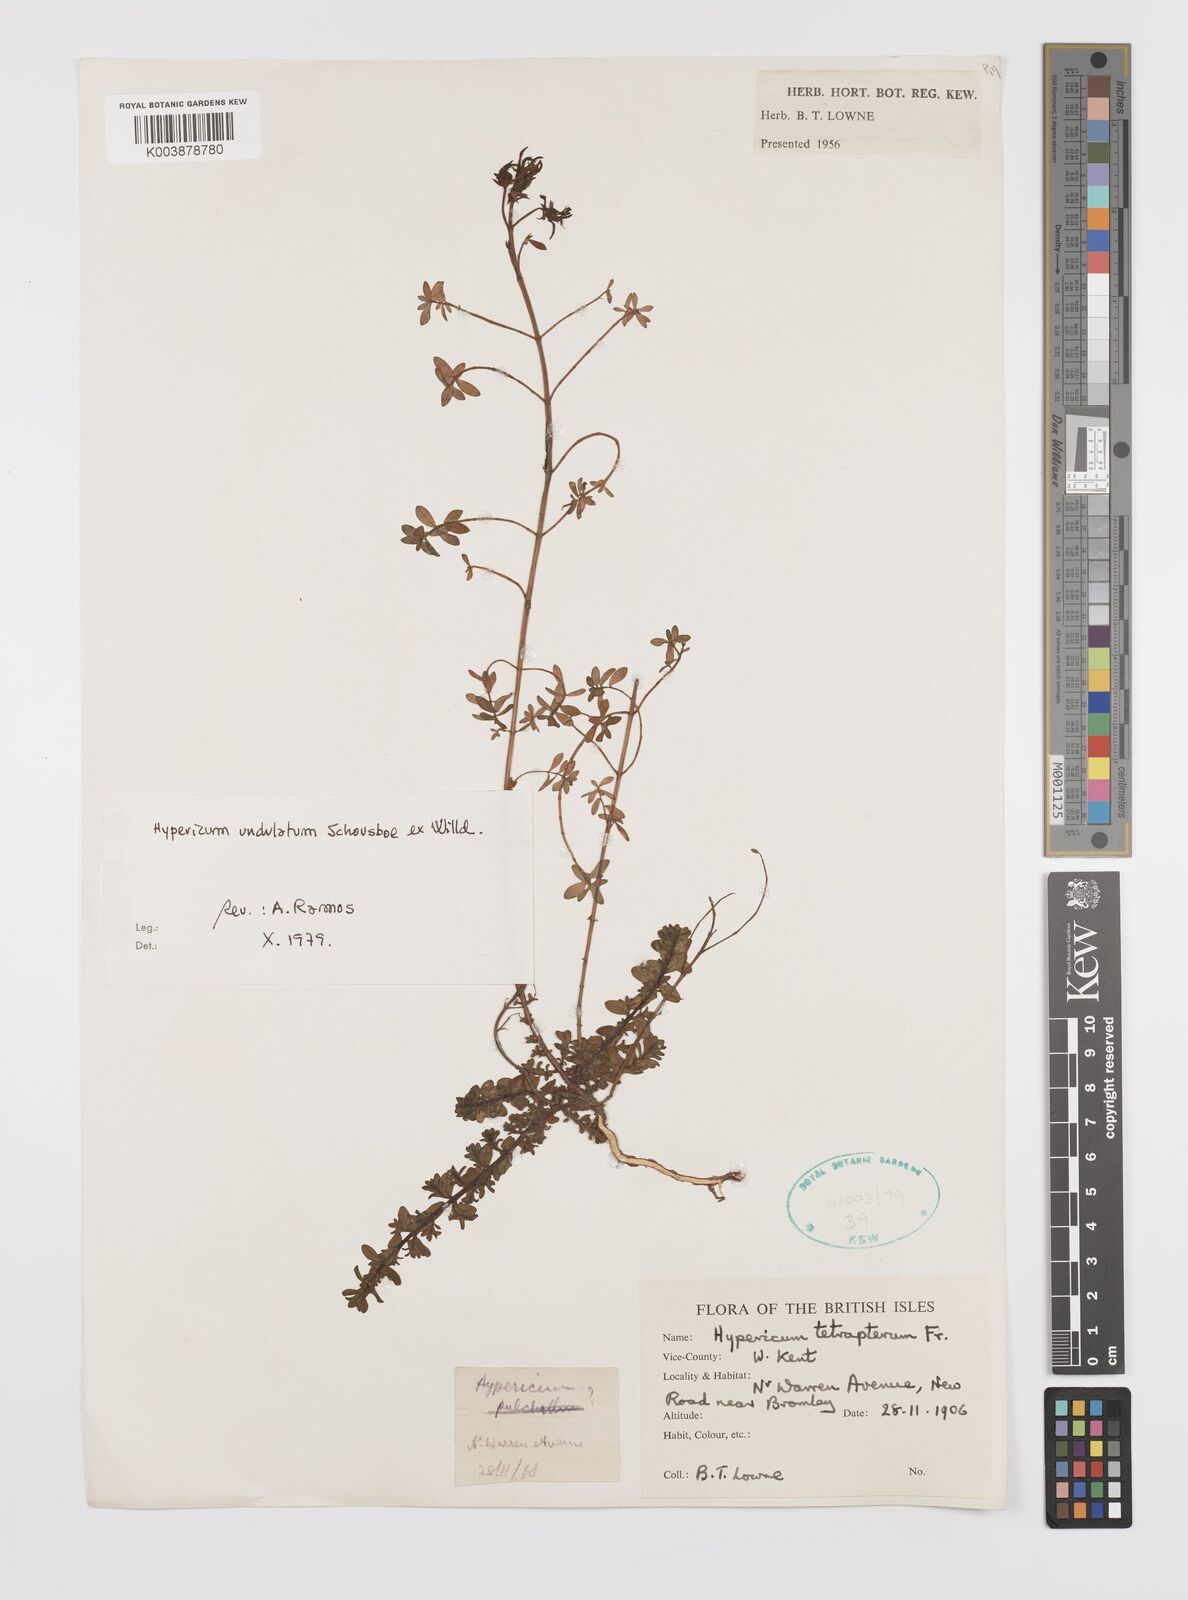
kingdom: Plantae
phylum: Tracheophyta
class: Magnoliopsida
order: Malpighiales
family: Hypericaceae
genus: Hypericum
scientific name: Hypericum tetrapterum
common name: Square-stalked st. john's-wort
